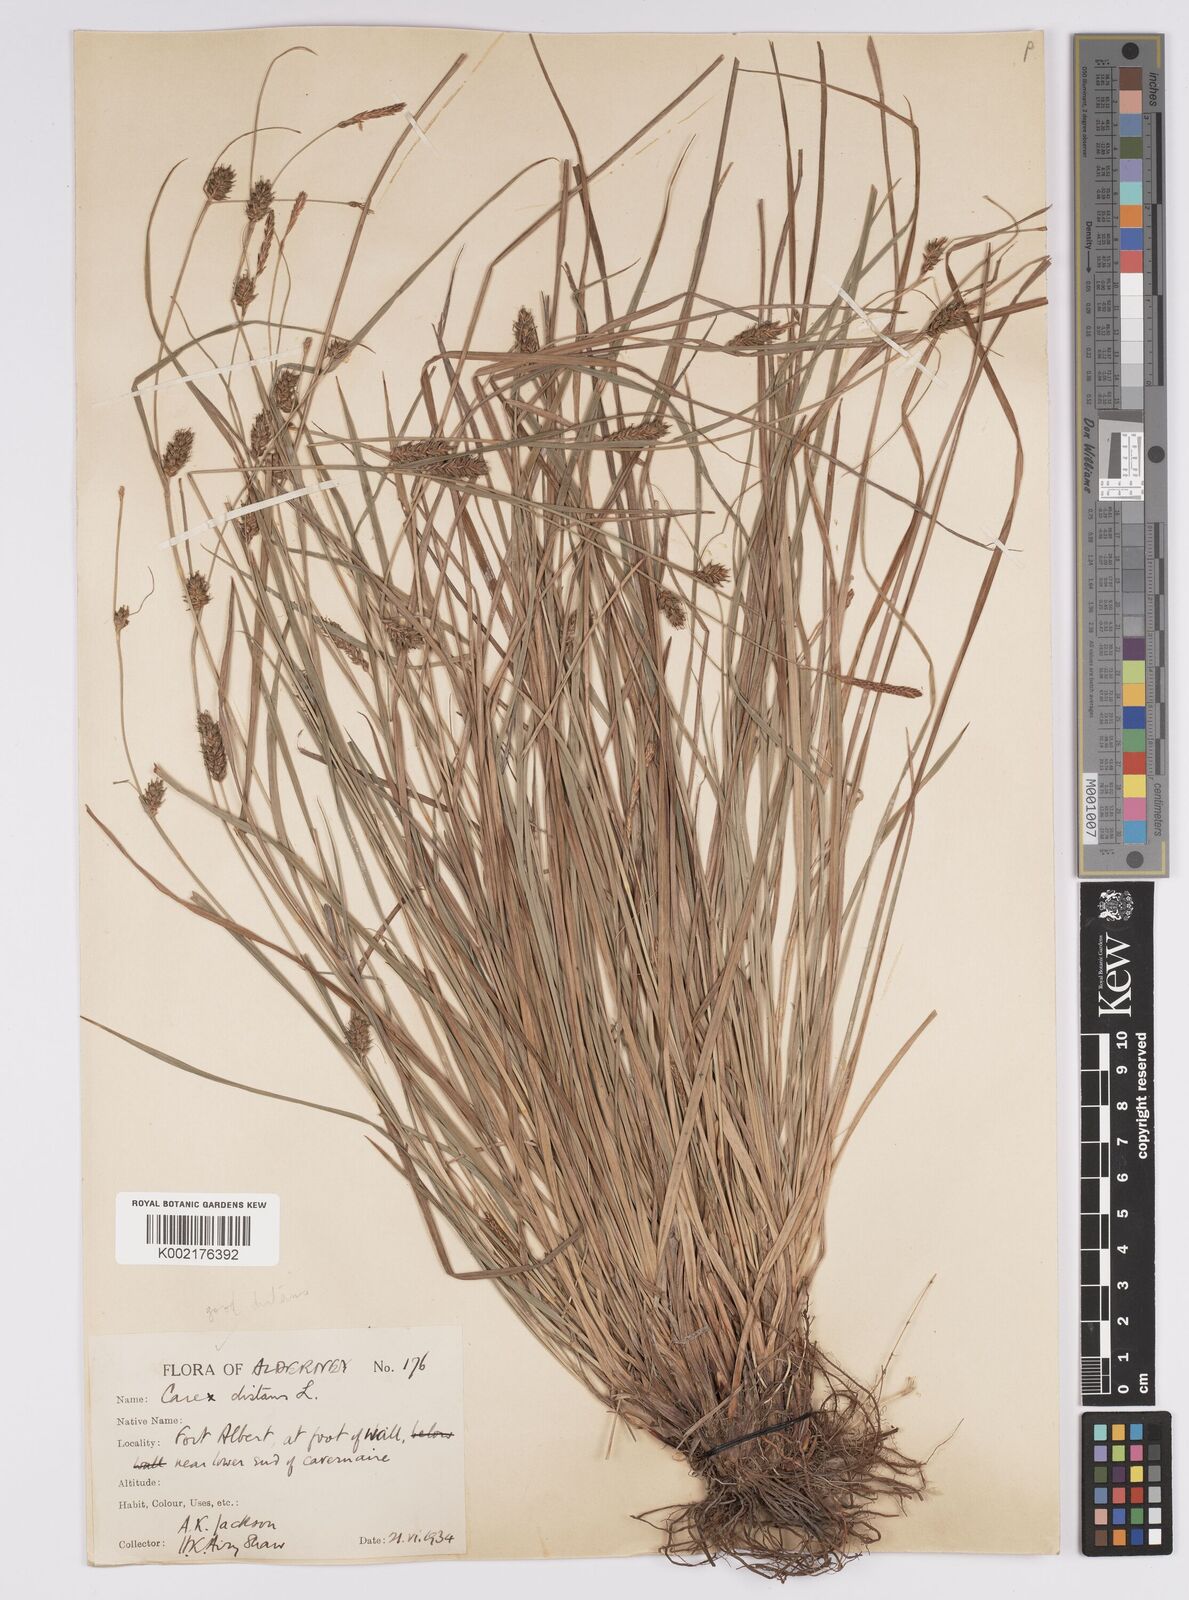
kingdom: Plantae
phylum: Tracheophyta
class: Liliopsida
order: Poales
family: Cyperaceae
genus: Carex
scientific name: Carex distans
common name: Distant sedge
